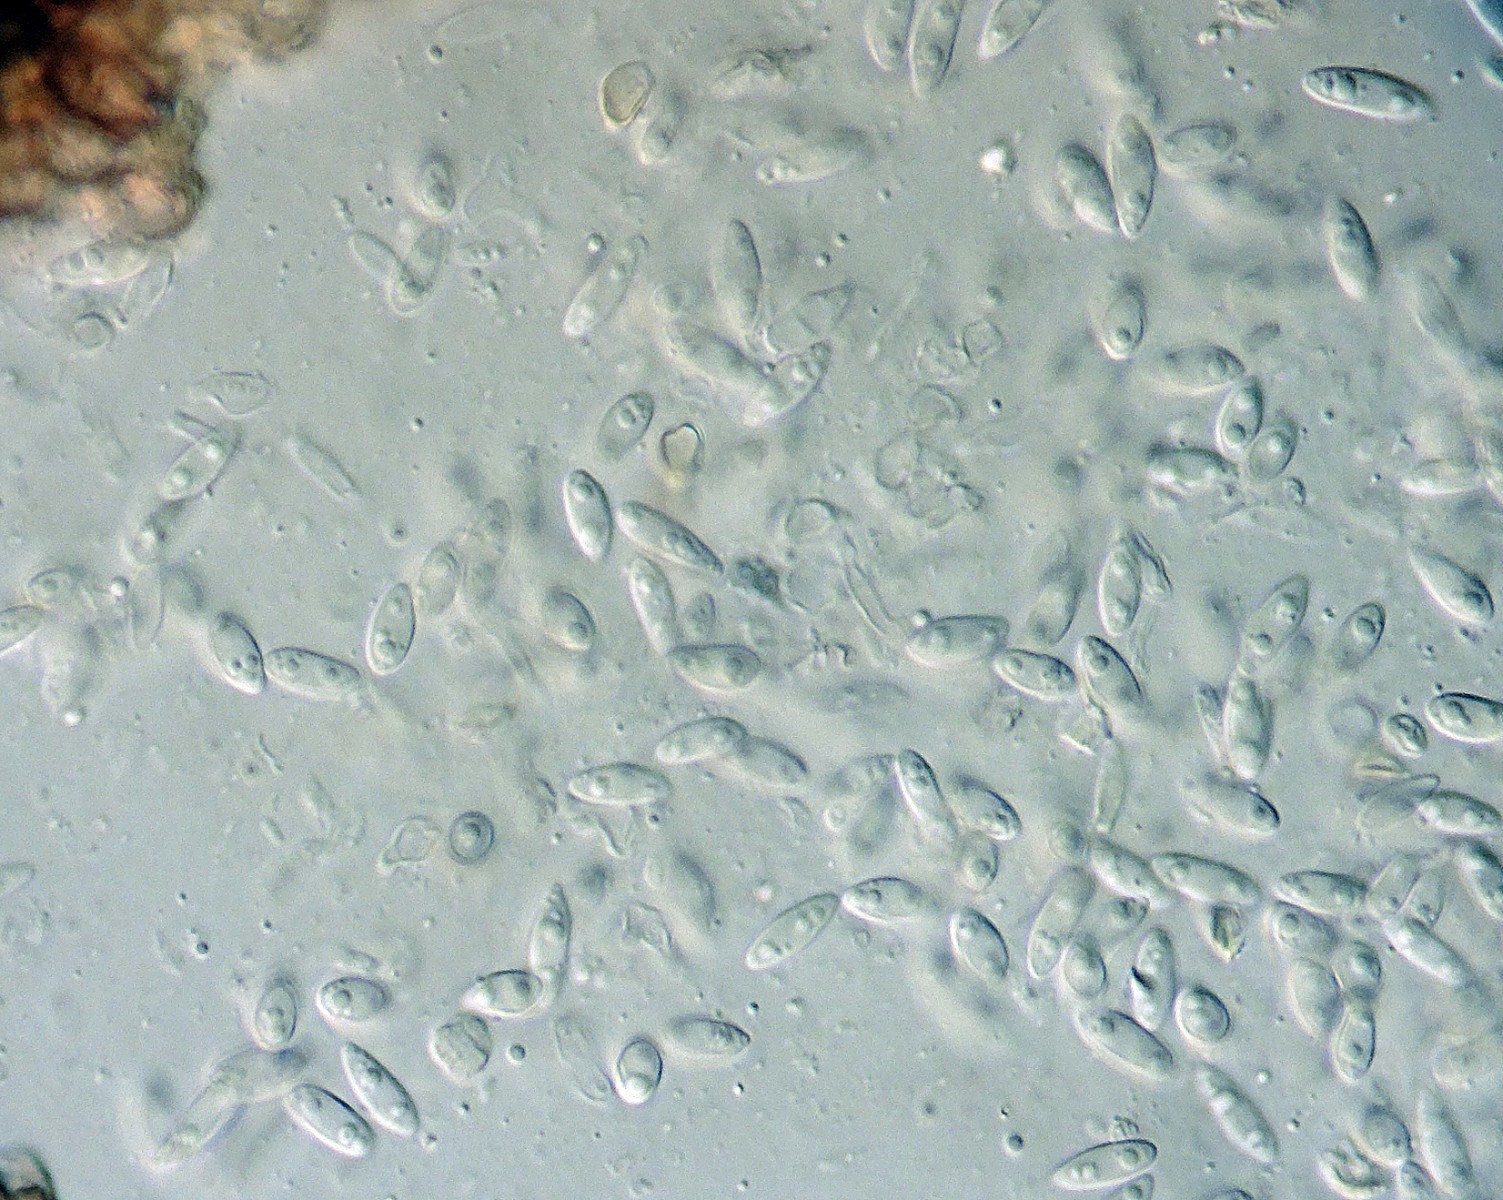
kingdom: Fungi
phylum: Ascomycota
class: Sordariomycetes
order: Diaporthales
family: Diaporthaceae
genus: Phomopsis
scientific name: Phomopsis durandiana
